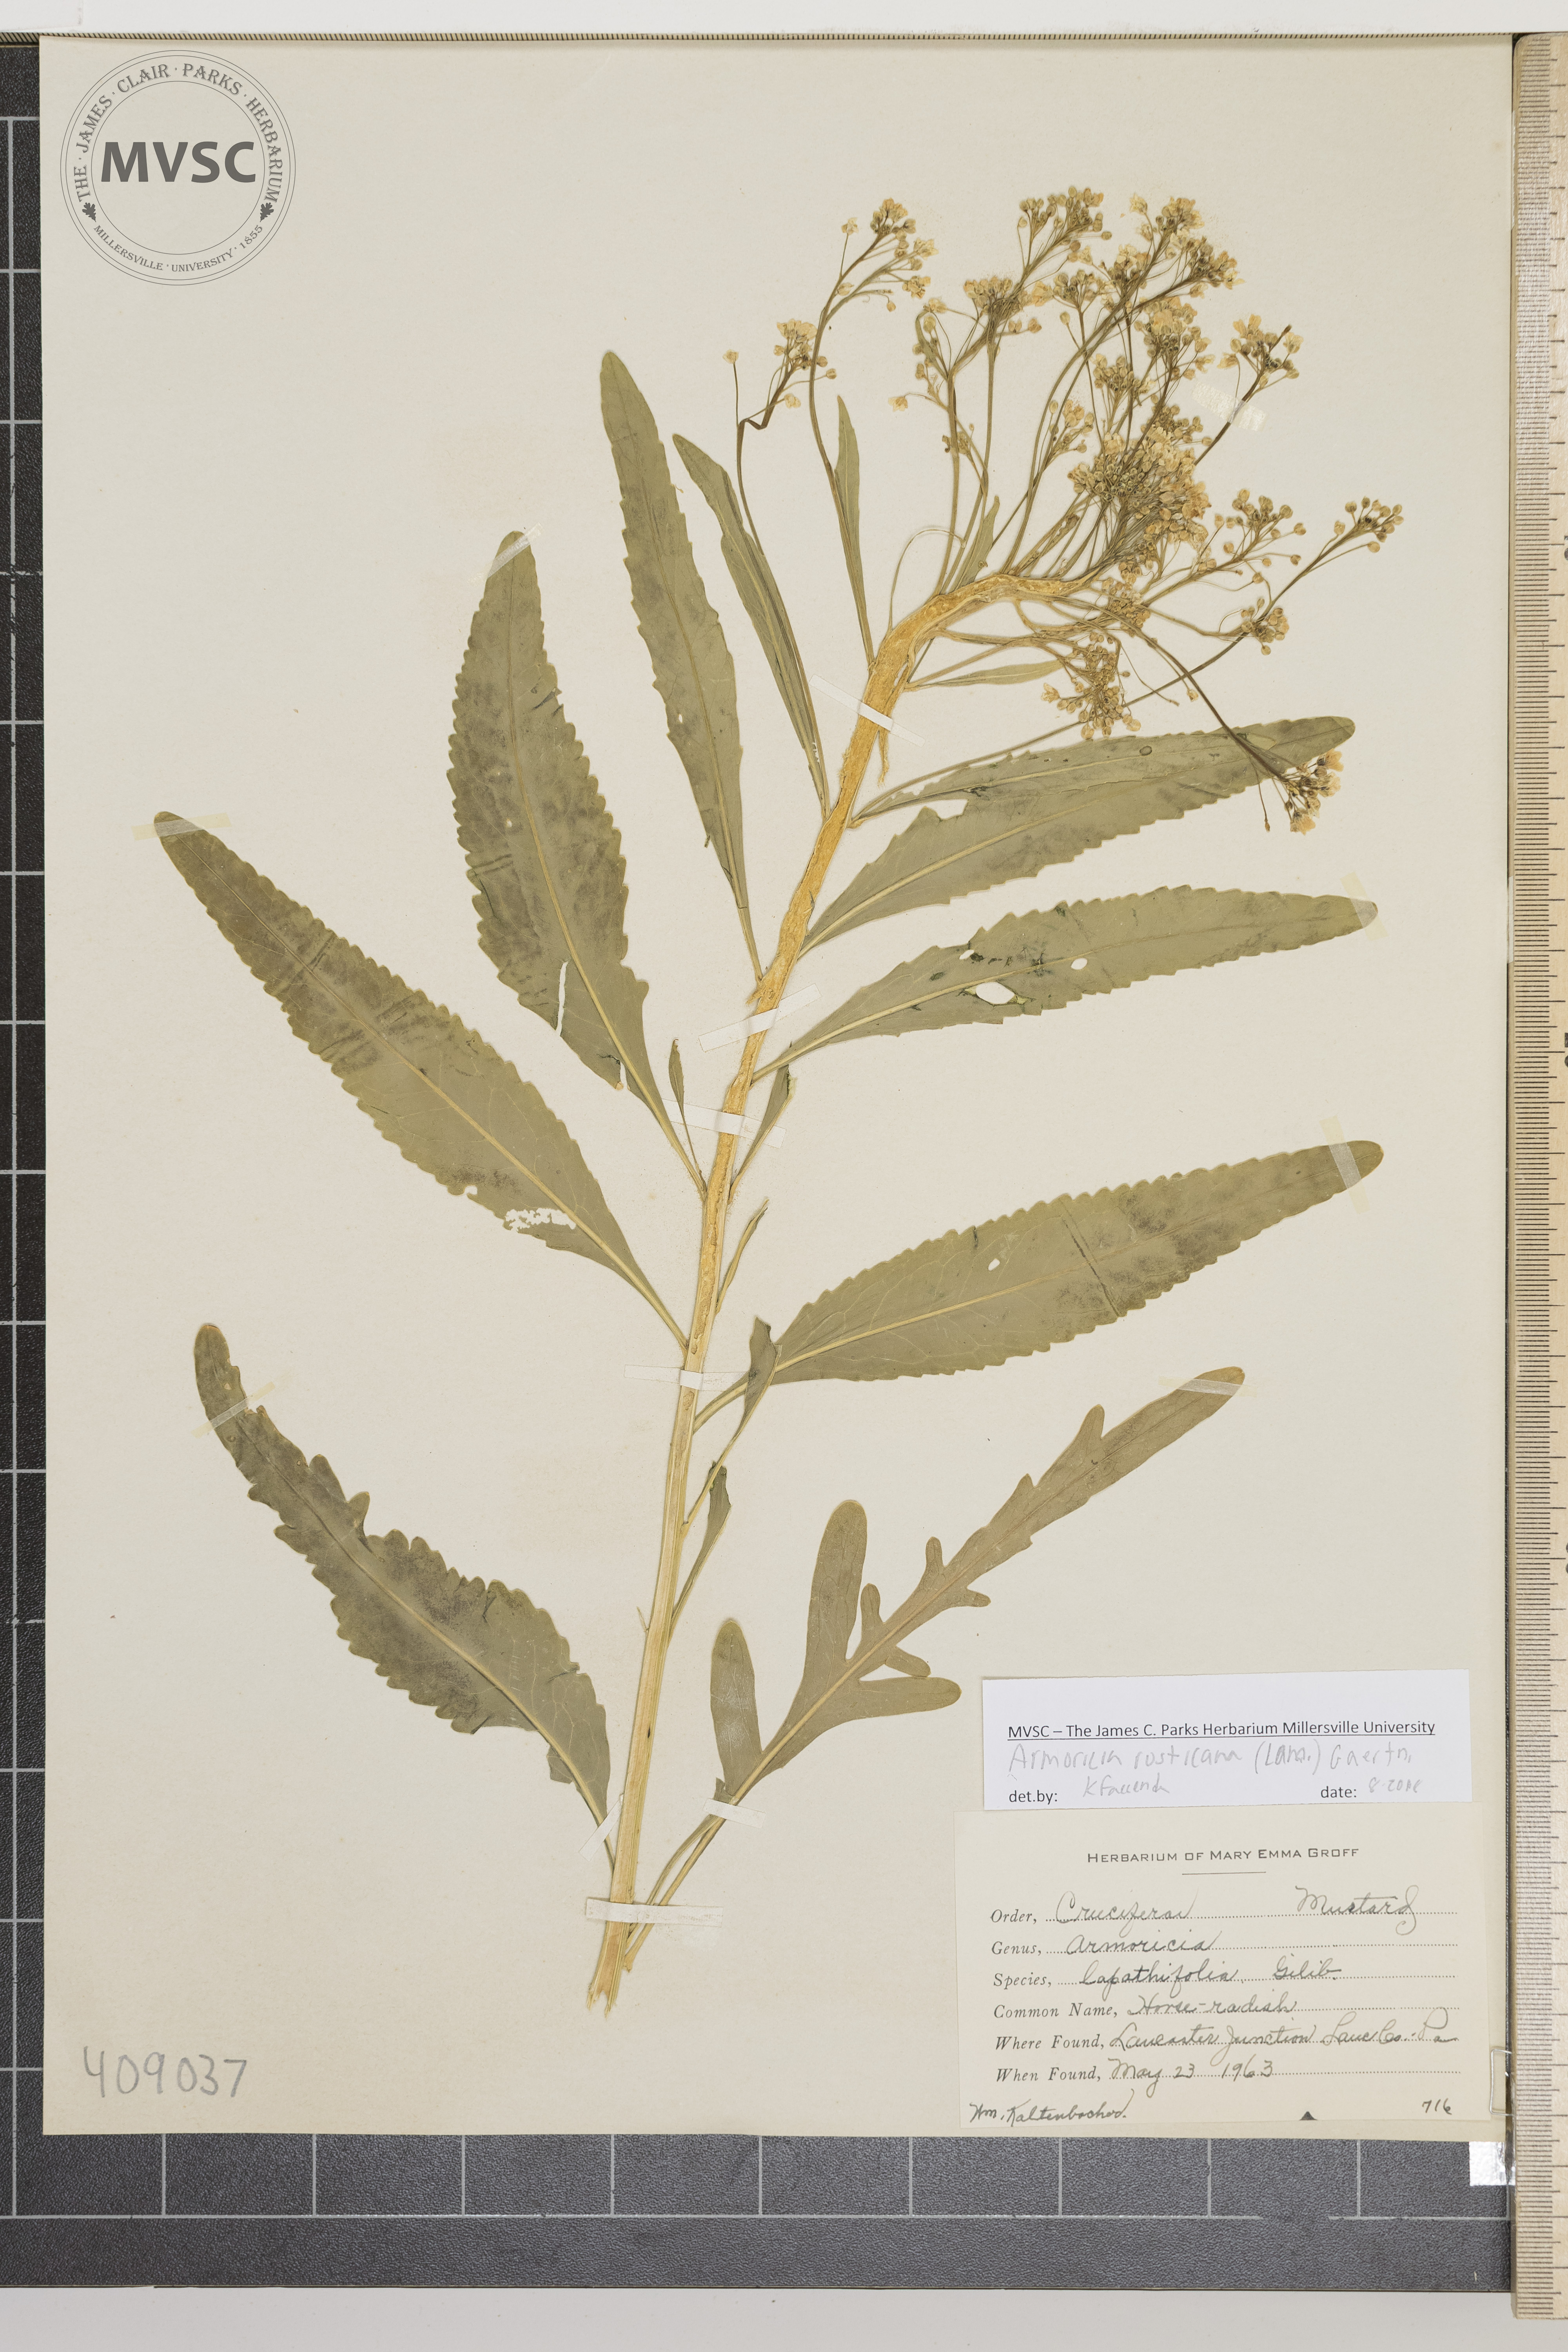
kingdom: Plantae
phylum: Tracheophyta
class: Magnoliopsida
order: Brassicales
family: Brassicaceae
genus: Armoracia
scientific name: Armoracia rusticana
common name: Horse-radish
